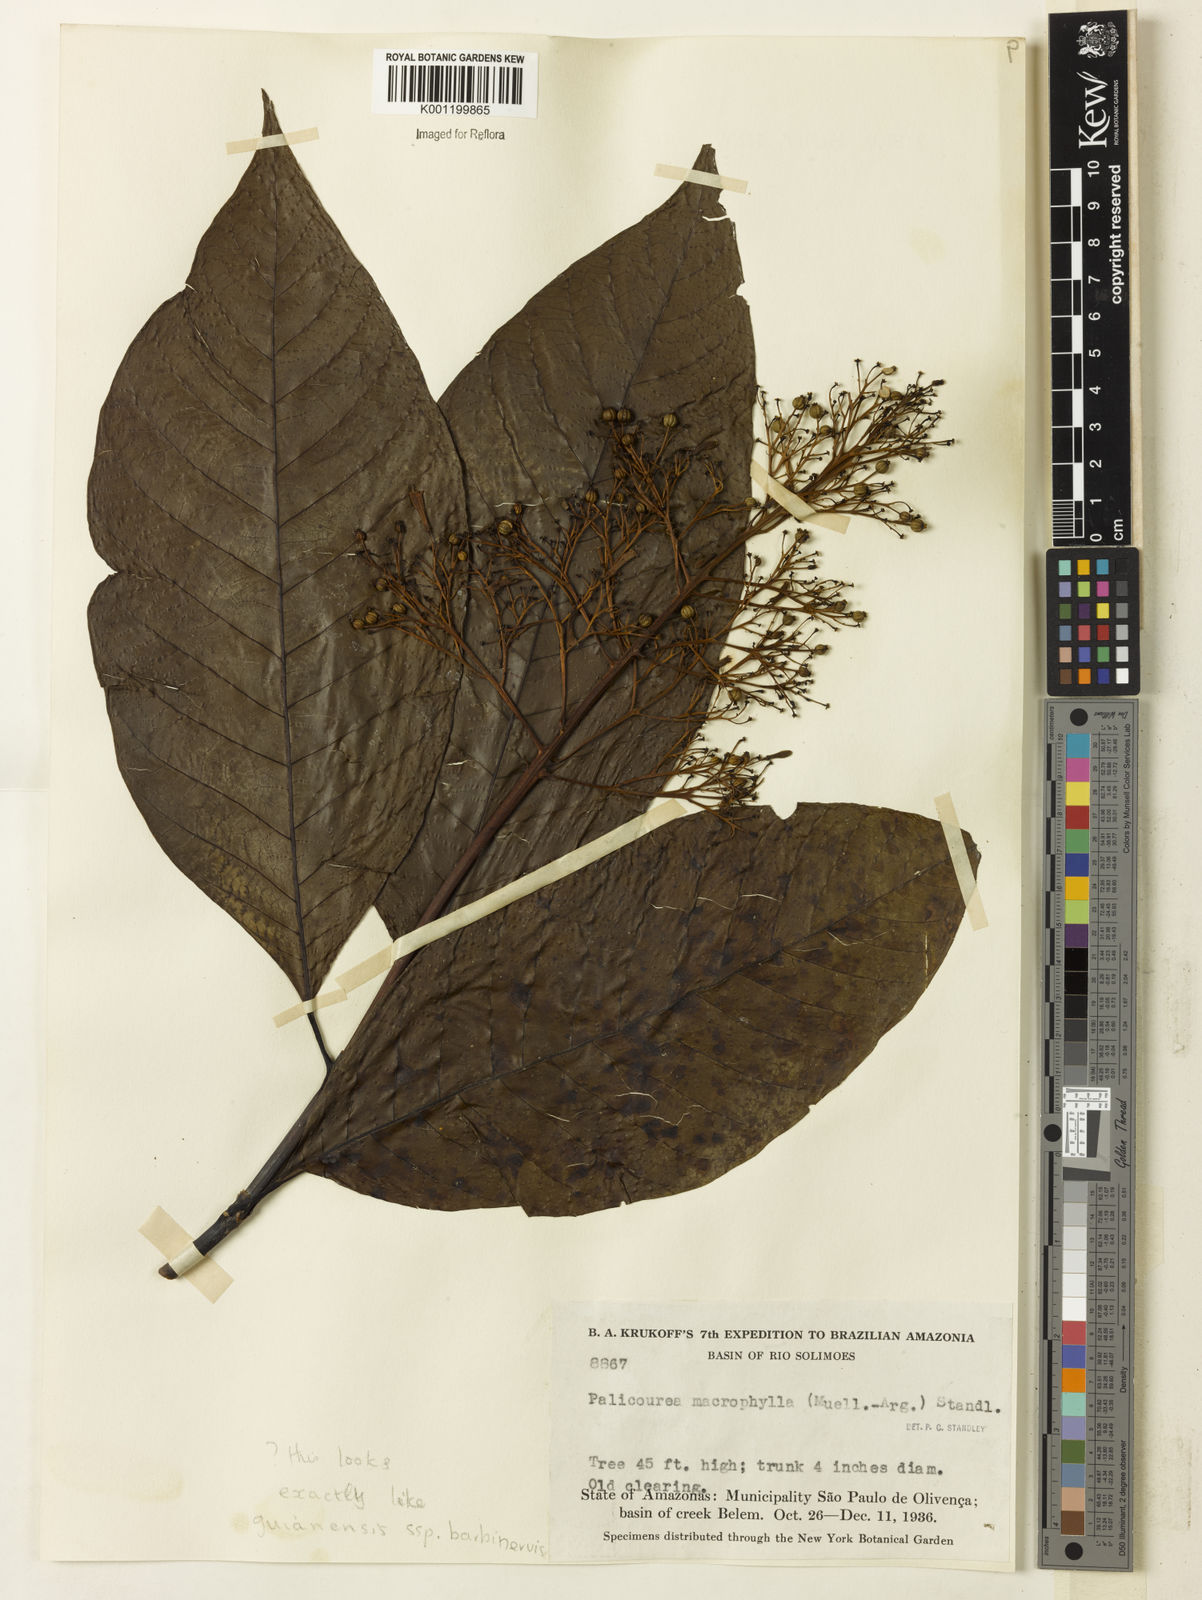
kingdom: Plantae
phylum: Tracheophyta
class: Magnoliopsida
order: Gentianales
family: Rubiaceae
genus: Palicourea
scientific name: Palicourea grandifolia
